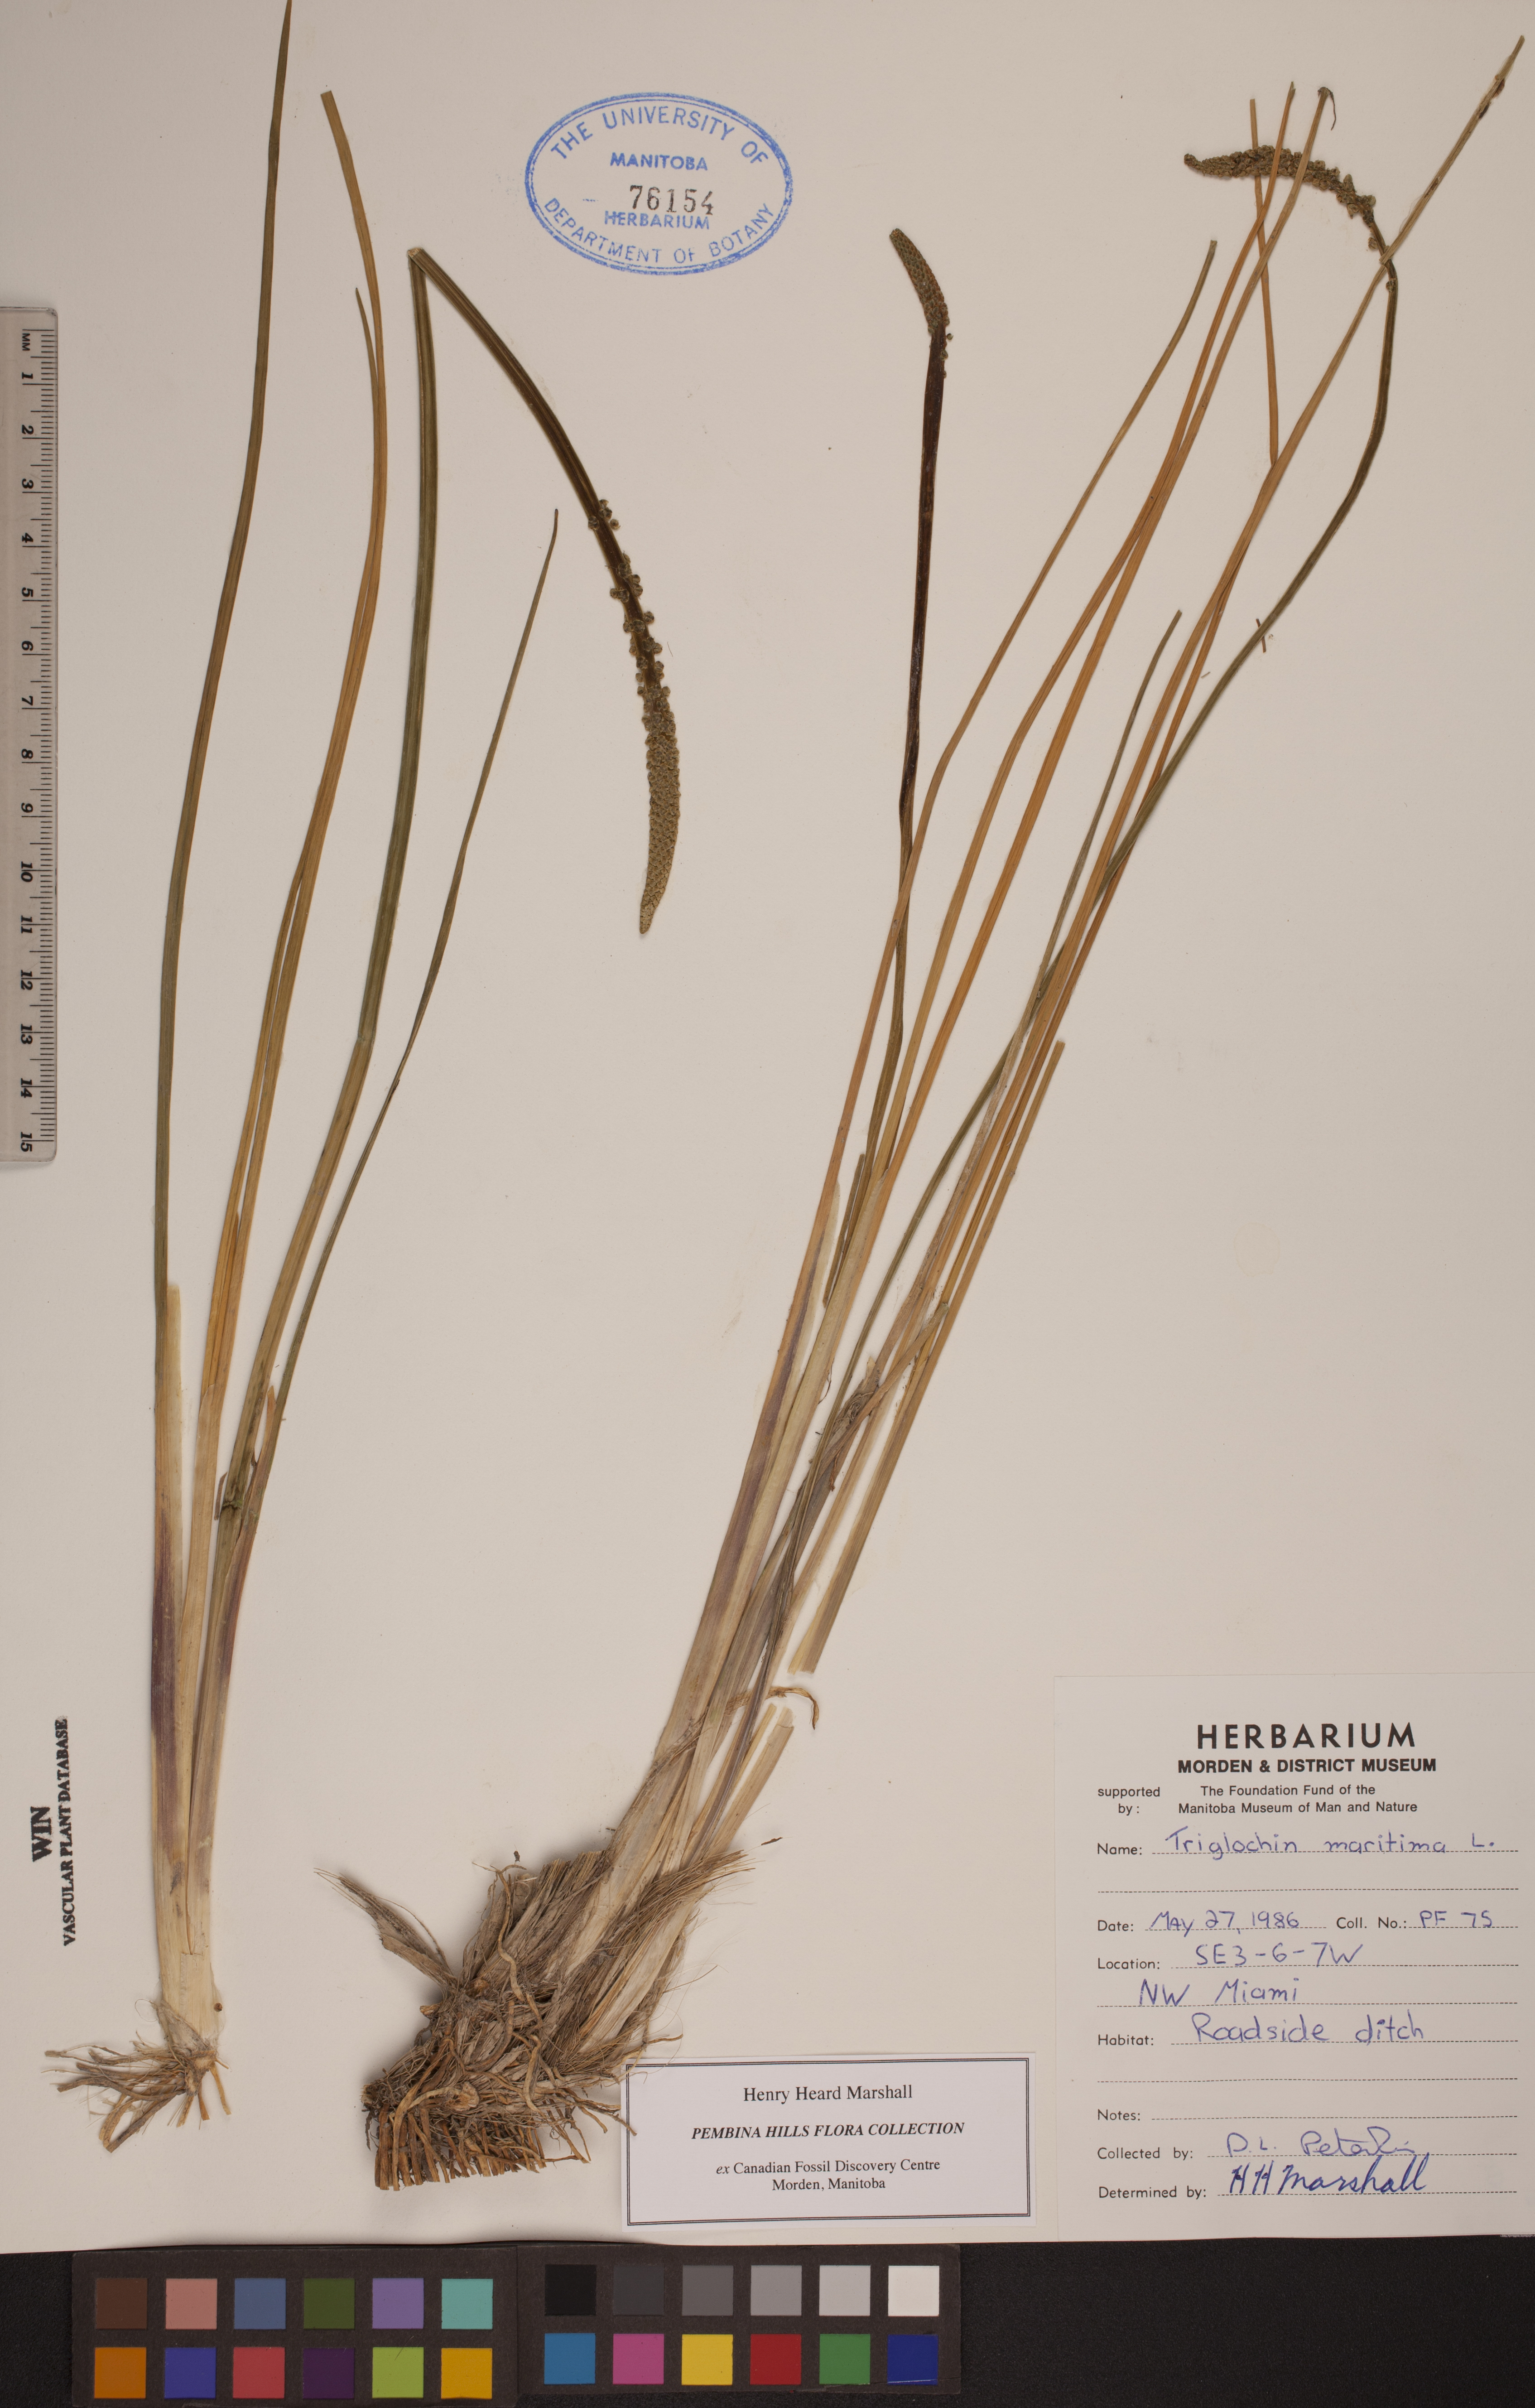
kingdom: Plantae
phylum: Tracheophyta
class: Liliopsida
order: Alismatales
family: Juncaginaceae
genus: Triglochin
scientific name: Triglochin maritima
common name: Sea arrowgrass
